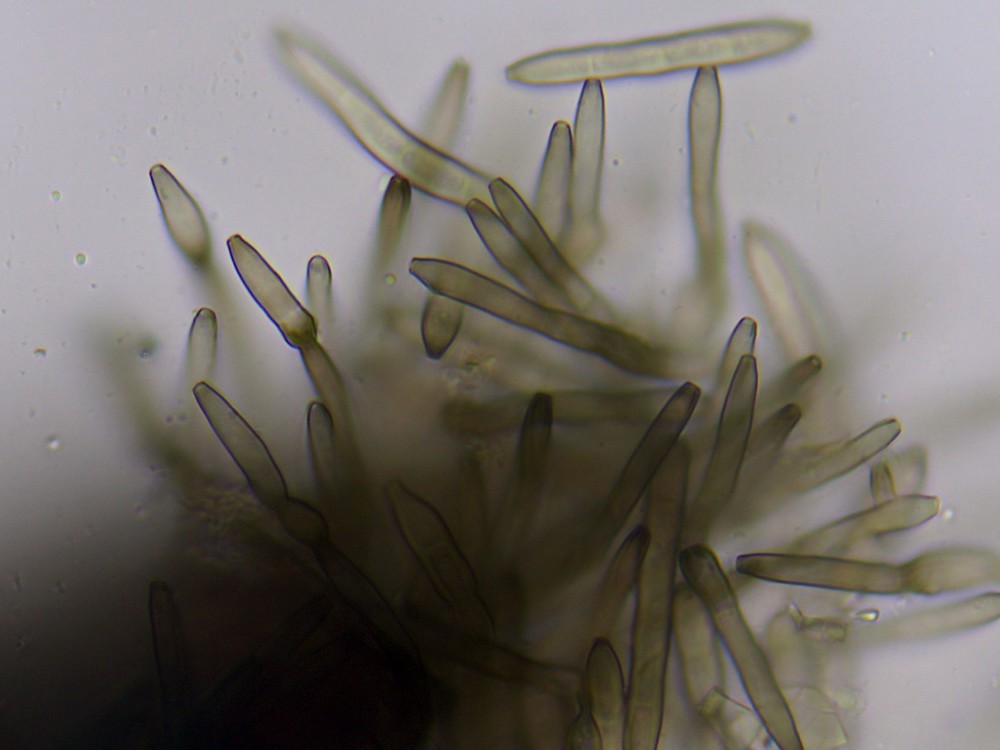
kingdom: Fungi
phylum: Ascomycota
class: Dothideomycetes
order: Pleosporales
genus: Sporidesmium
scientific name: Sporidesmium tetracoilum
